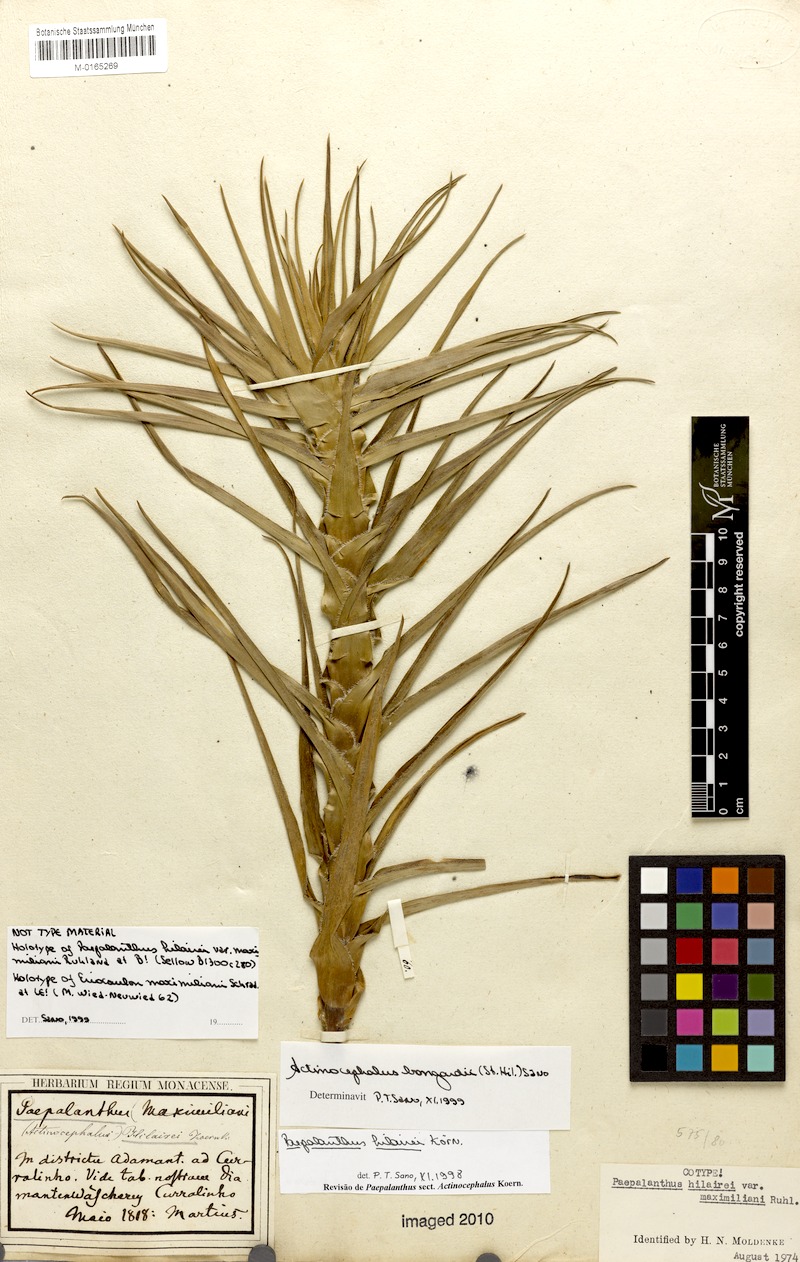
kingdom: Plantae
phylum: Tracheophyta
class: Liliopsida
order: Poales
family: Eriocaulaceae
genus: Paepalanthus
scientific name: Paepalanthus hilairei
